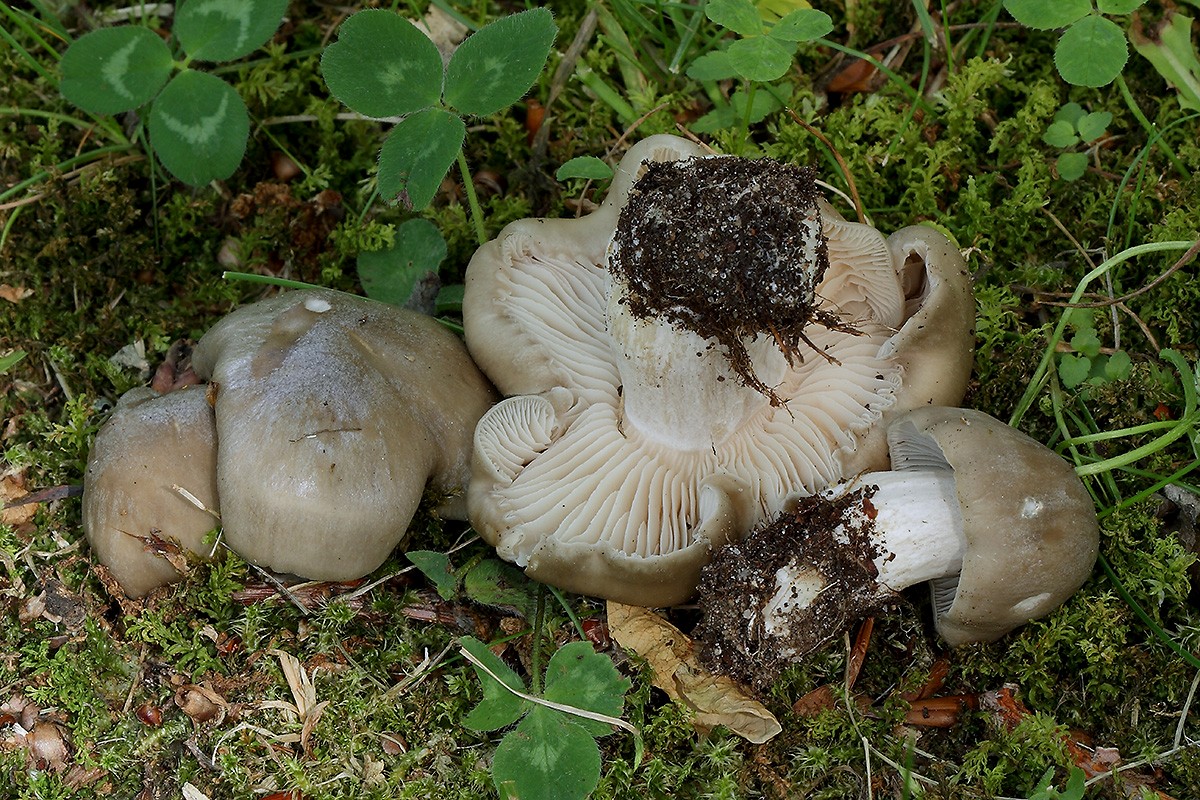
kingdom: Fungi
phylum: Basidiomycota
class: Agaricomycetes
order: Agaricales
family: Entolomataceae
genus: Entoloma
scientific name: Entoloma lividoalbum
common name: lysstokket rødblad
